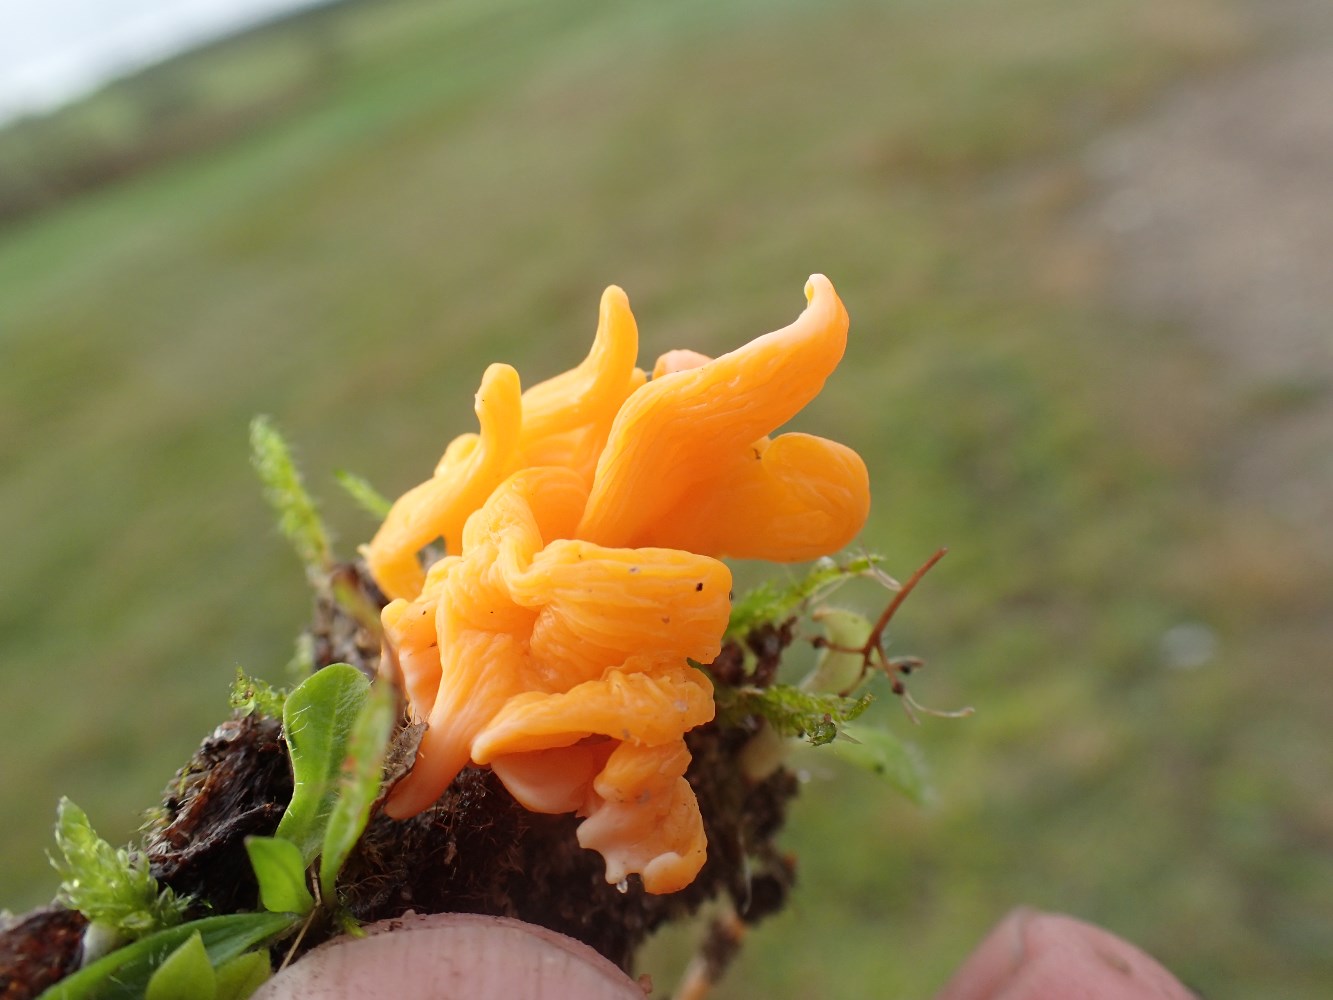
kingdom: Fungi
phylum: Basidiomycota
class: Agaricomycetes
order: Agaricales
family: Clavariaceae
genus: Clavulinopsis
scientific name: Clavulinopsis luteoalba
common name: abrikos-køllesvamp
